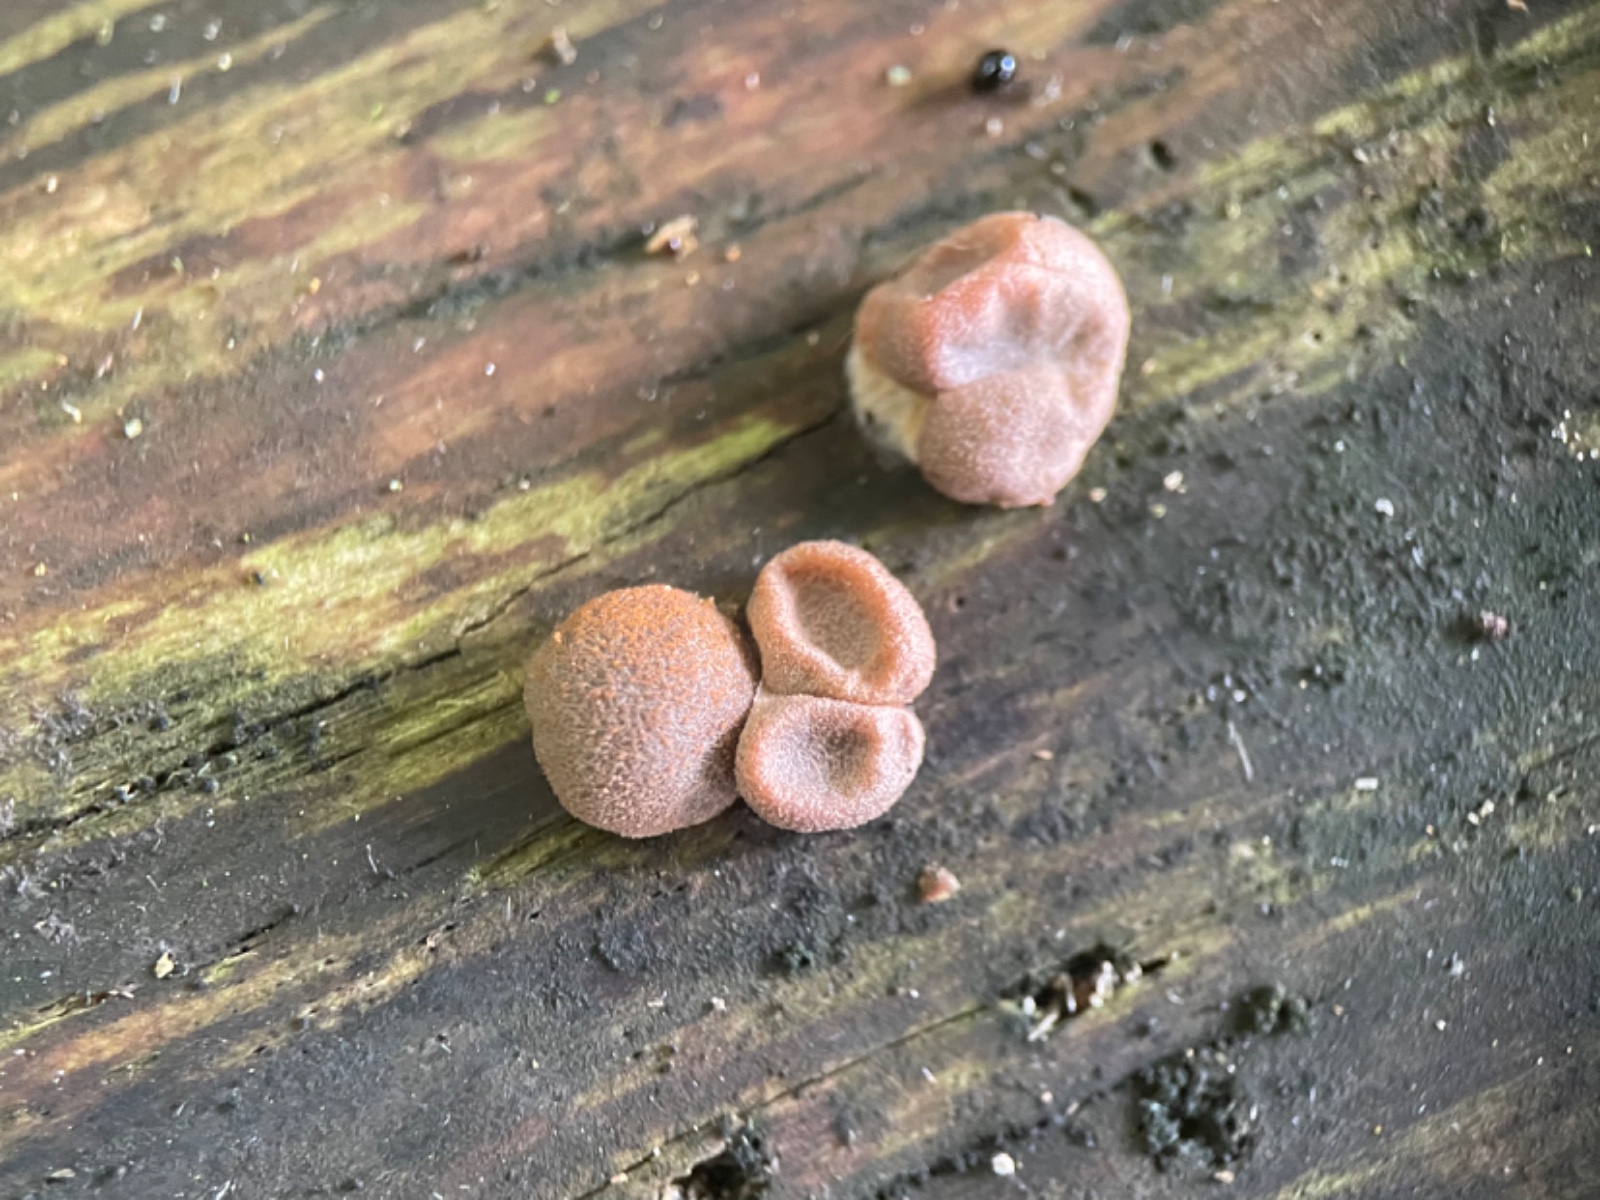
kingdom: Protozoa
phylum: Mycetozoa
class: Myxomycetes
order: Cribrariales
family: Tubiferaceae
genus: Lycogala
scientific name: Lycogala epidendrum
